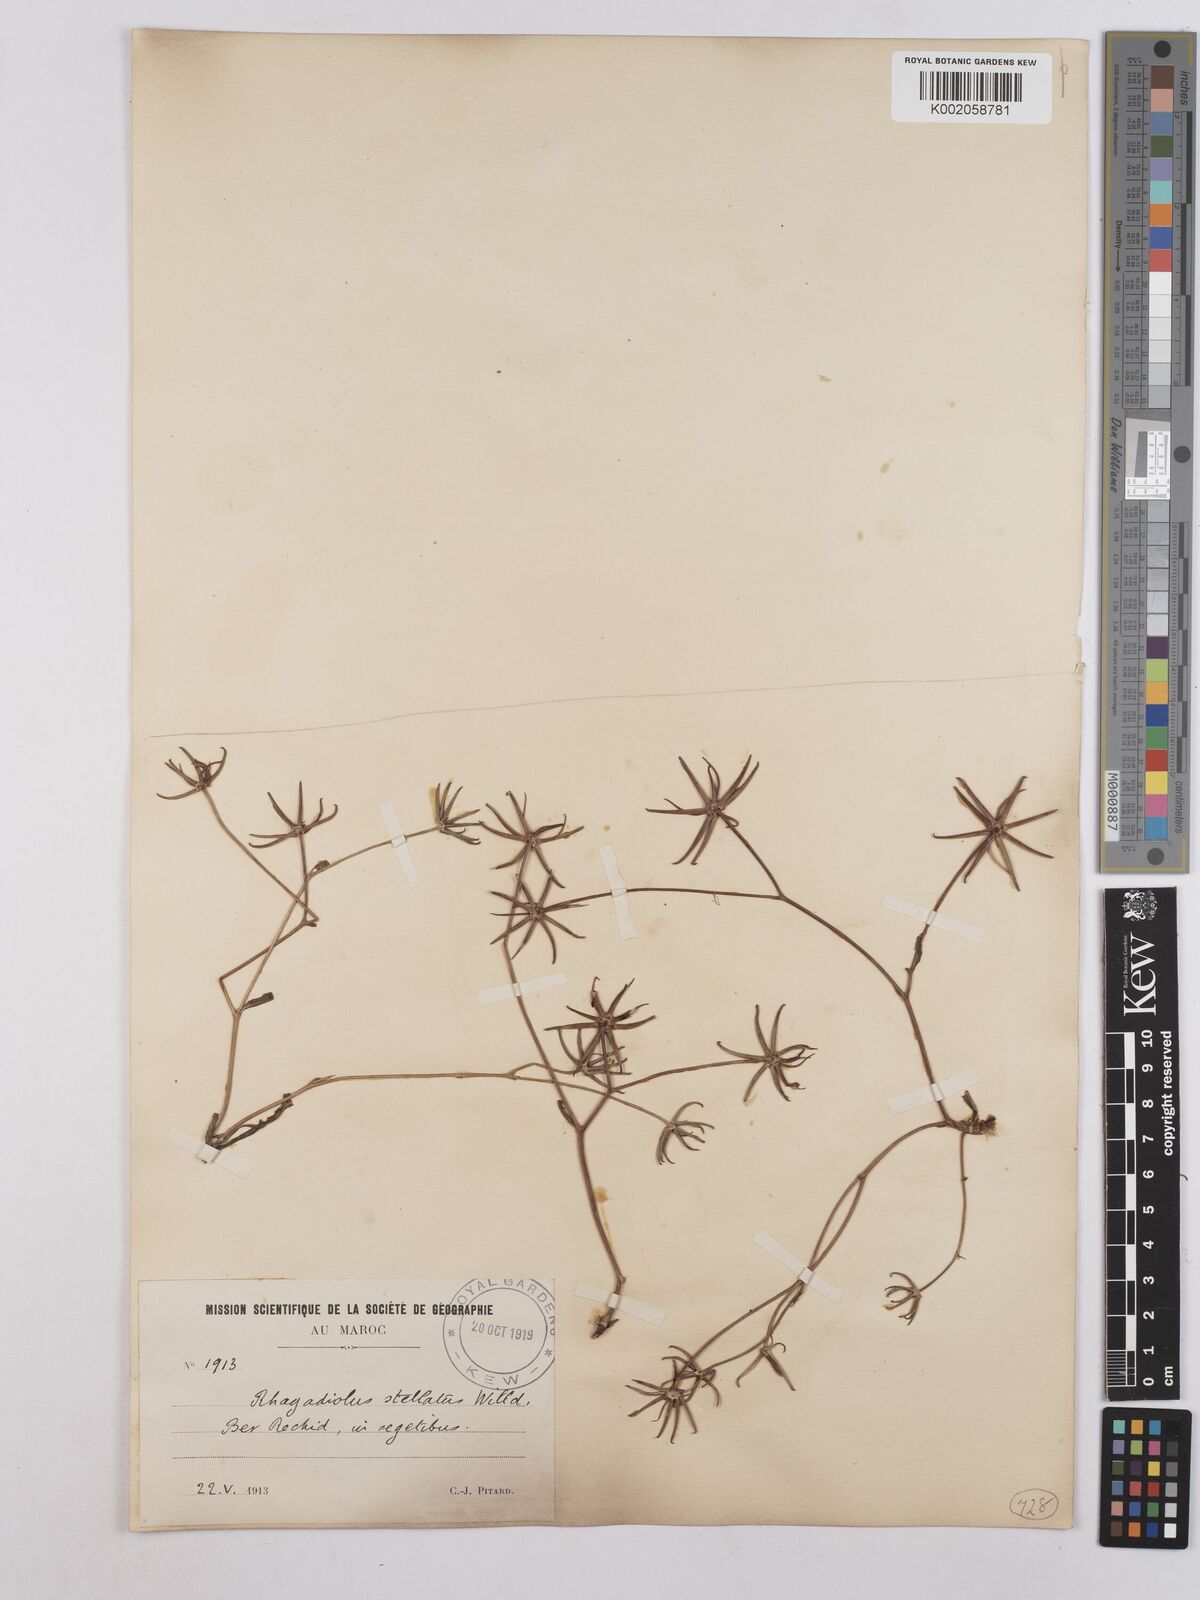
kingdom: Plantae
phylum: Tracheophyta
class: Magnoliopsida
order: Asterales
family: Asteraceae
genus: Rhagadiolus
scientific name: Rhagadiolus stellatus
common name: Star hawkbit
